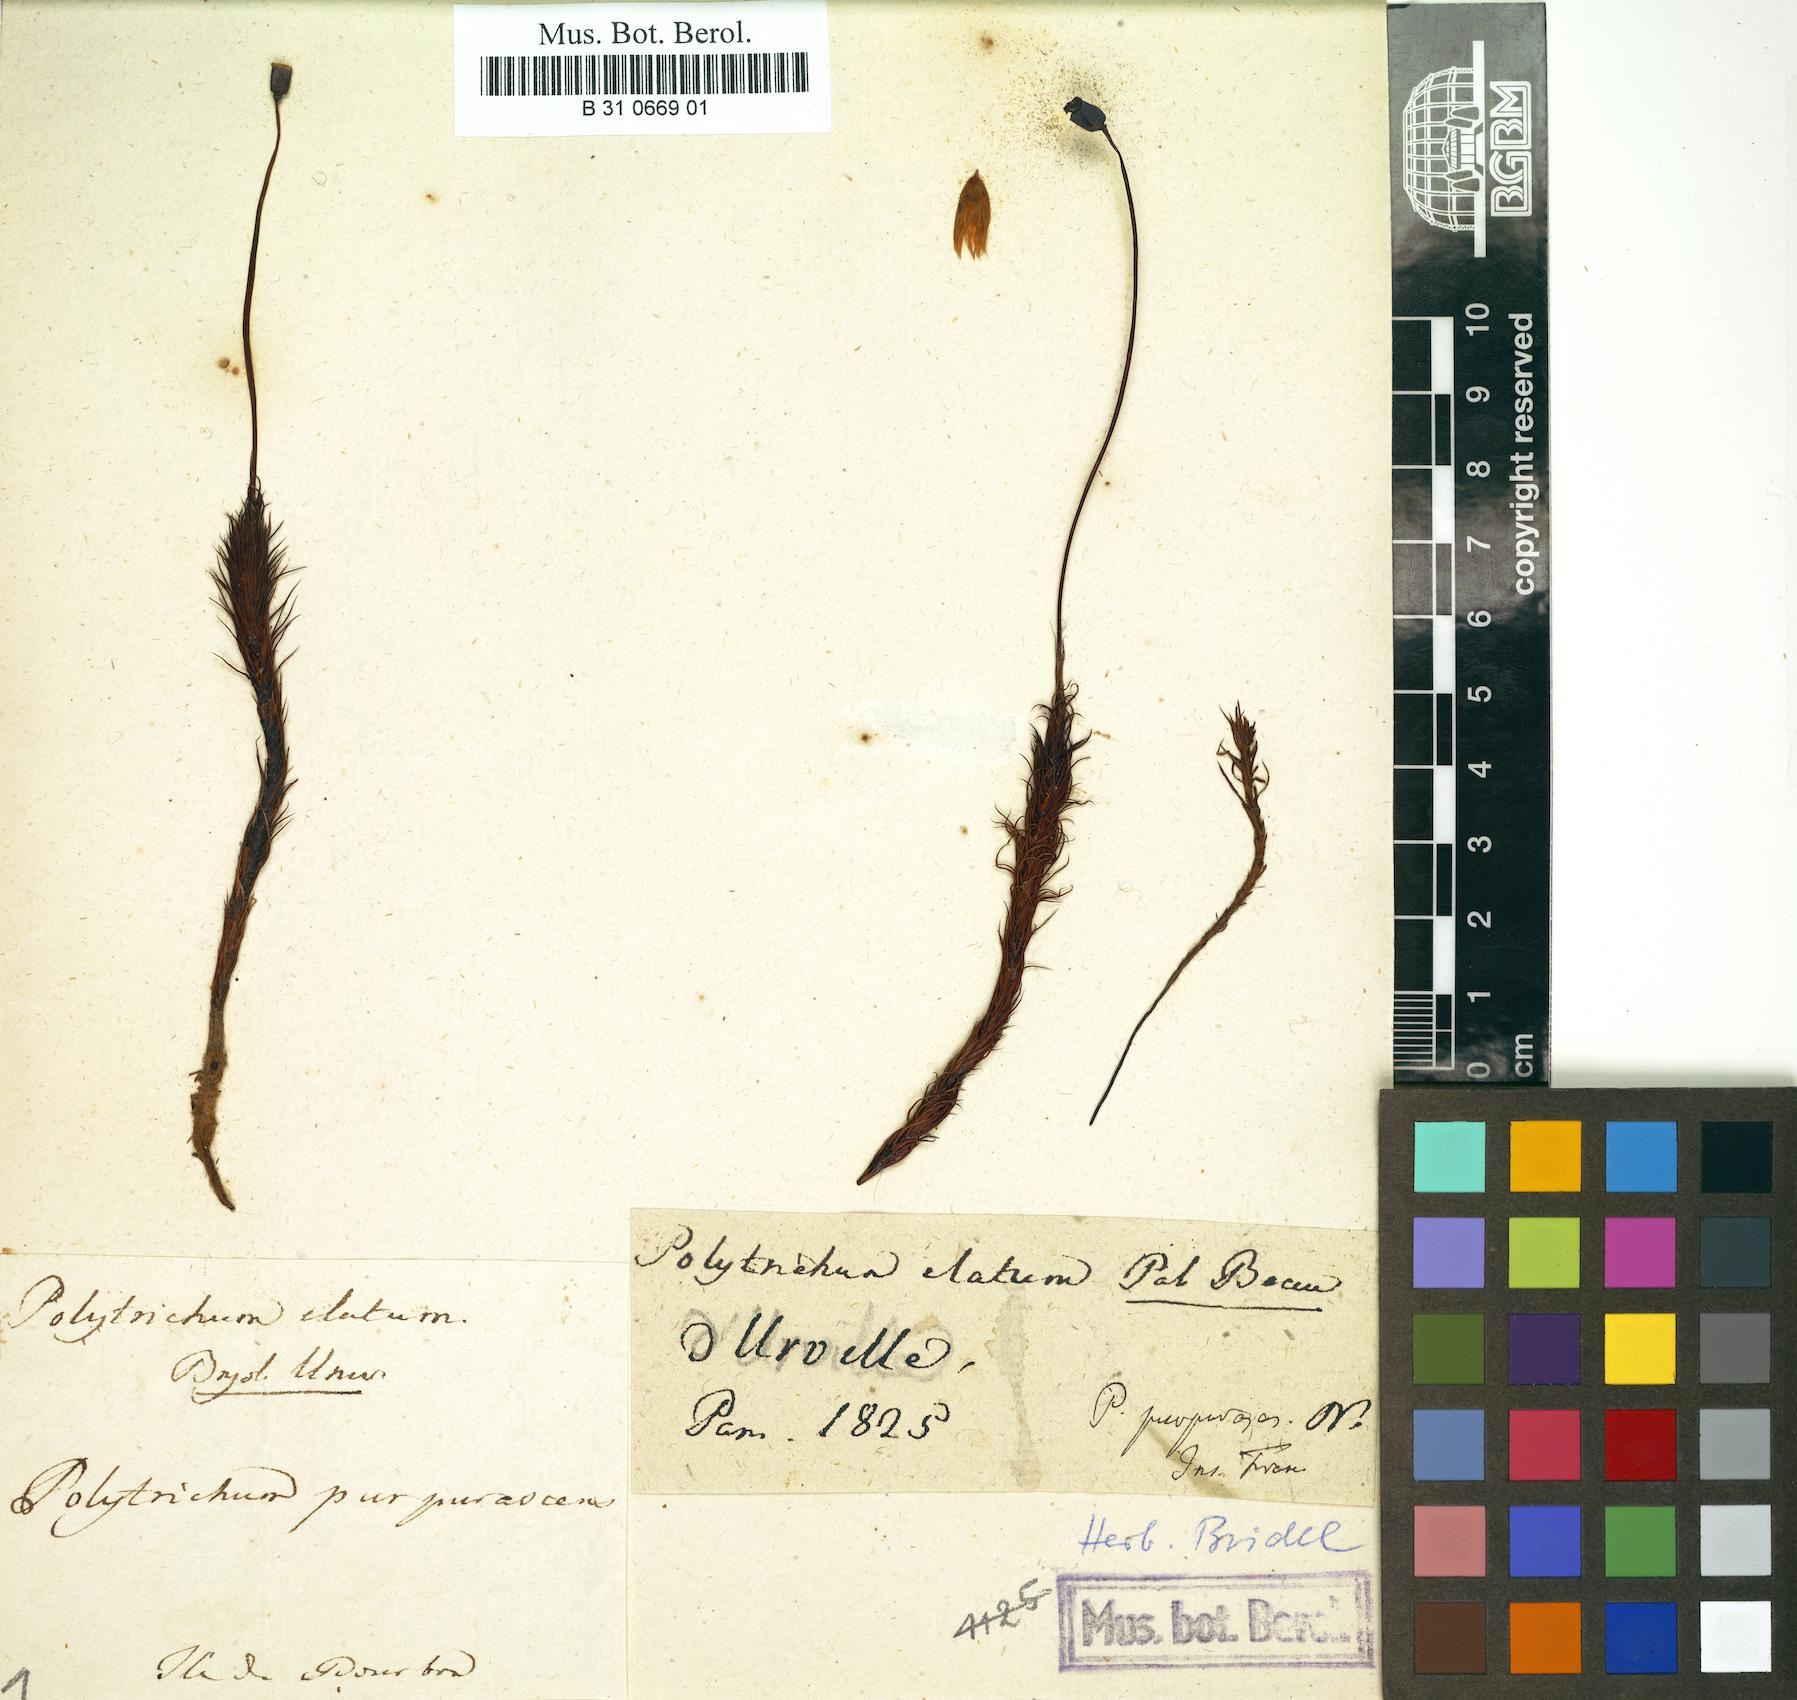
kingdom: Plantae
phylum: Bryophyta
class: Polytrichopsida
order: Polytrichales
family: Polytrichaceae
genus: Polytrichum
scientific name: Polytrichum commune
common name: Common haircap
